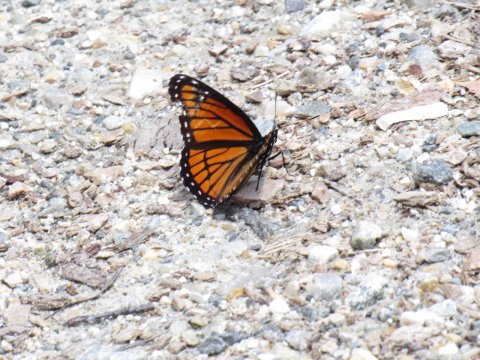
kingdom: Animalia
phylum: Arthropoda
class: Insecta
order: Lepidoptera
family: Nymphalidae
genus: Limenitis
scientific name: Limenitis archippus
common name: Viceroy
